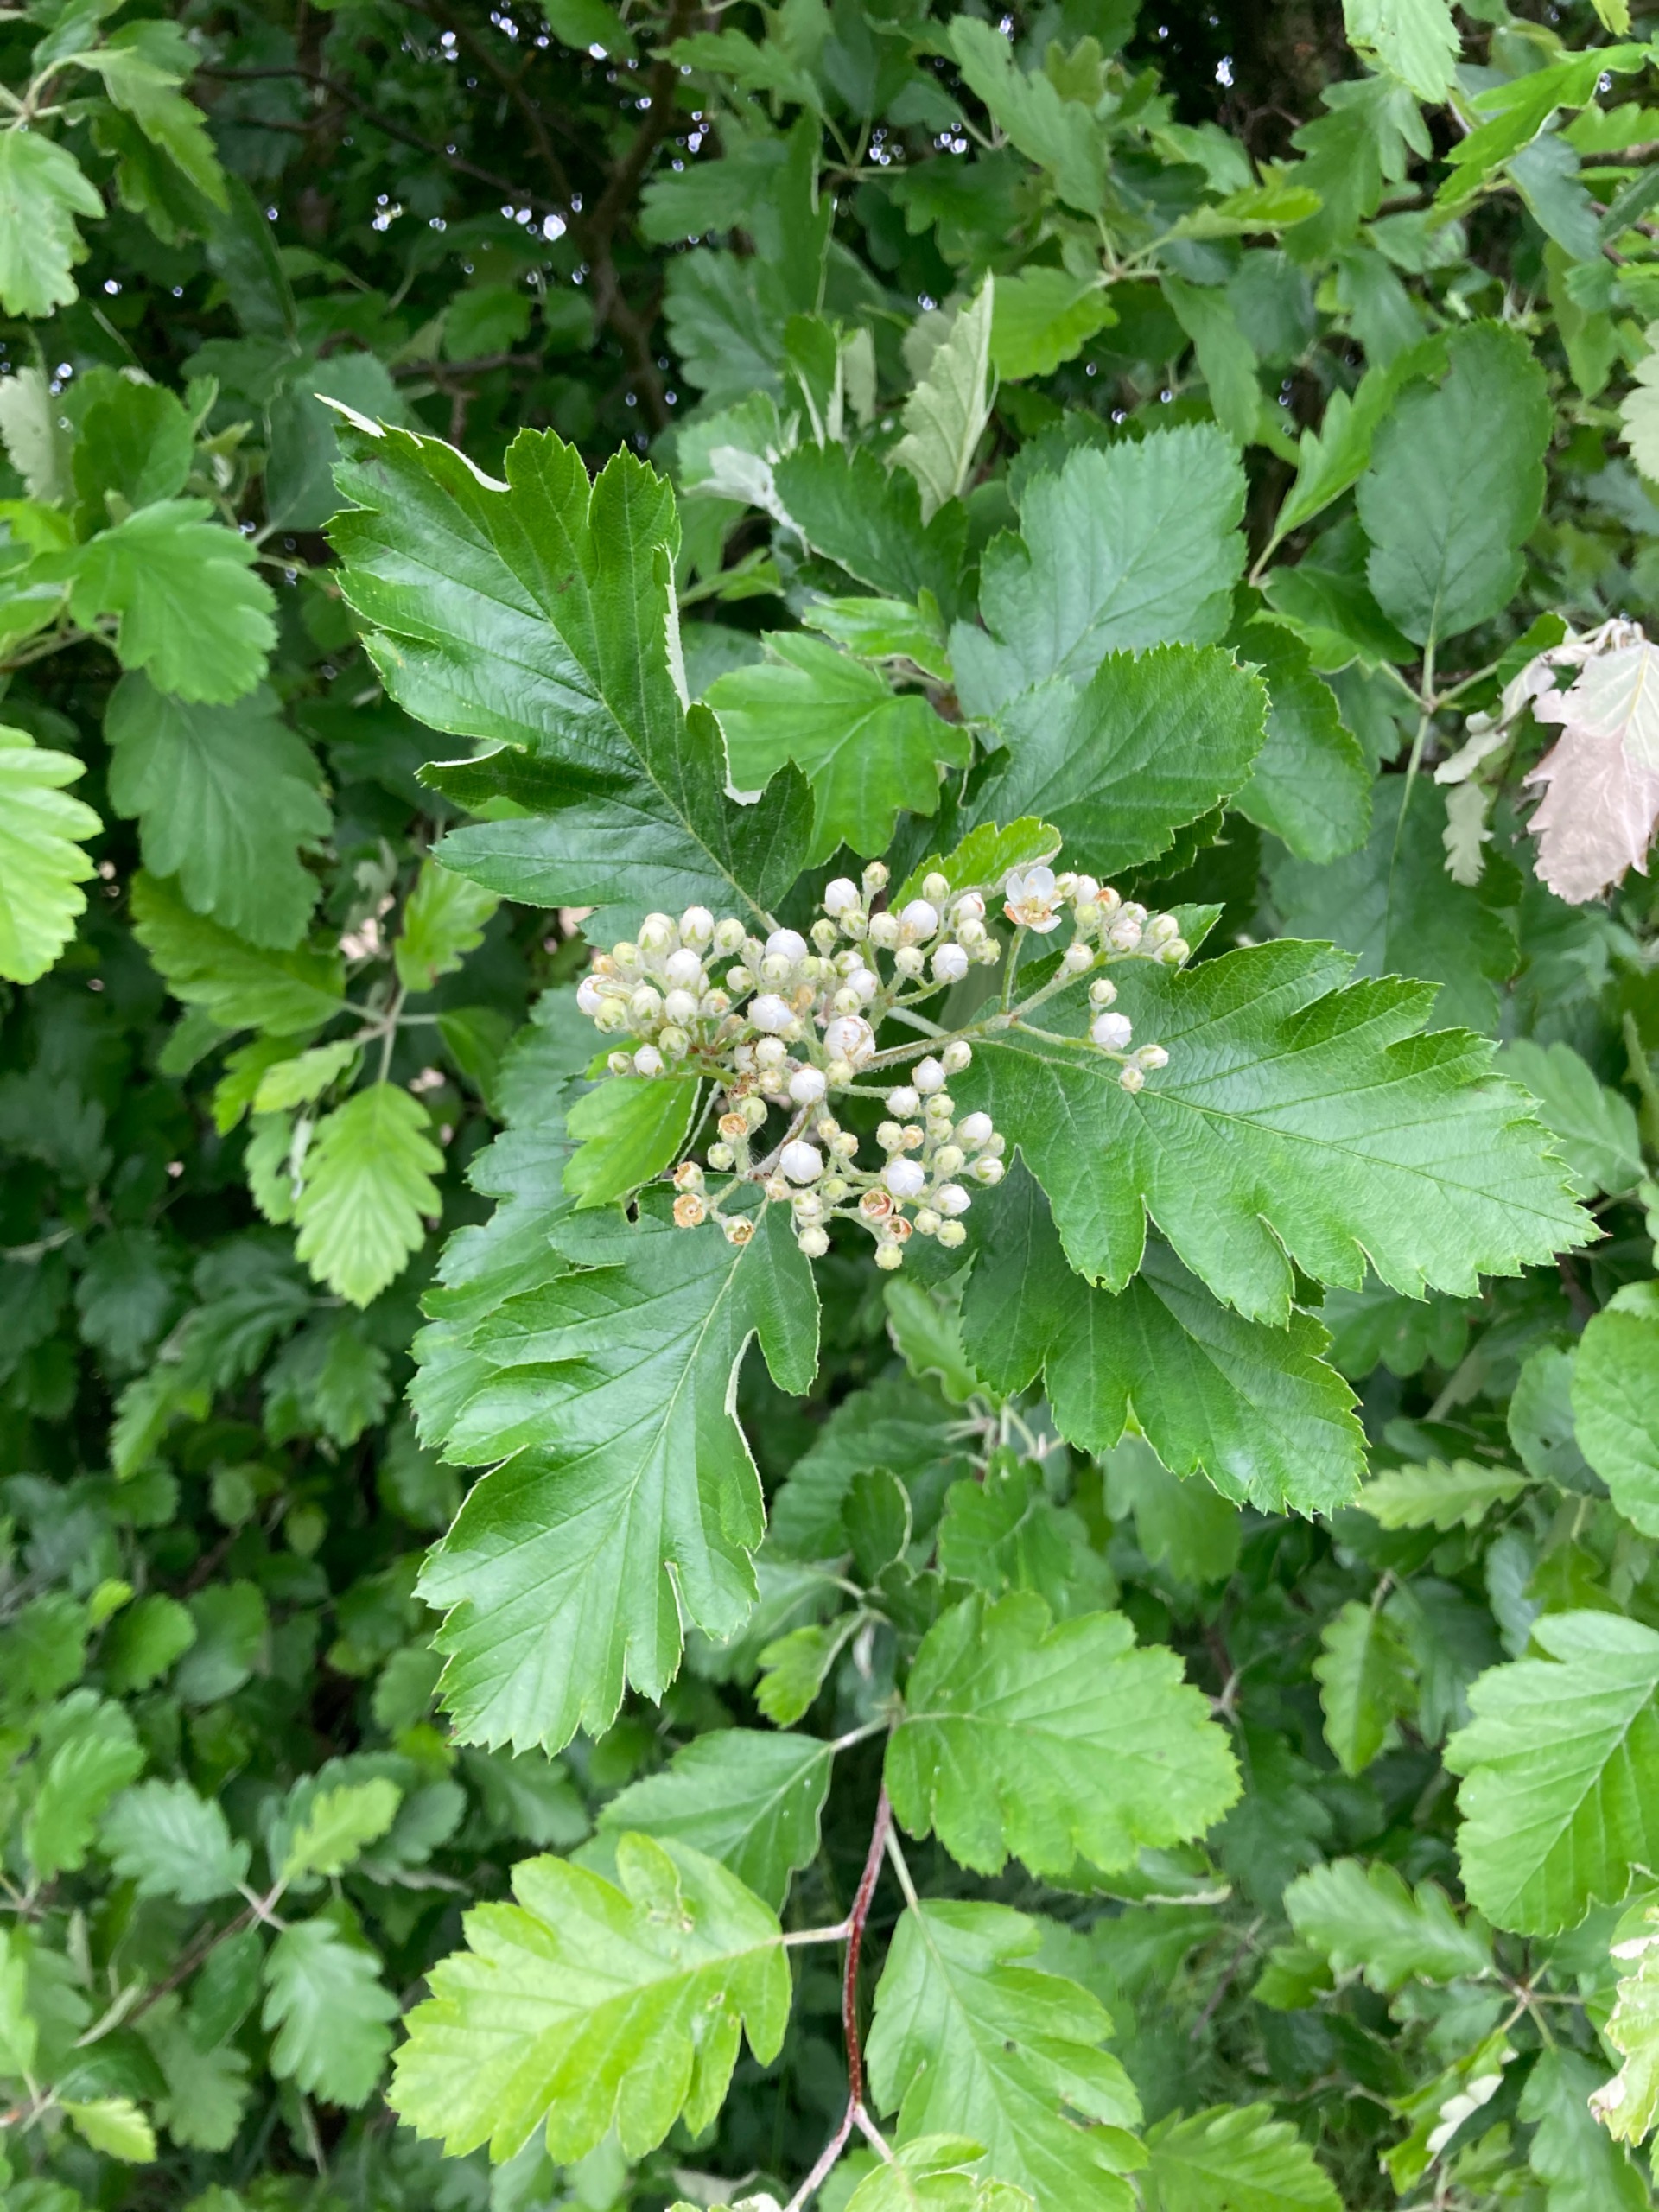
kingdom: Plantae
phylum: Tracheophyta
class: Magnoliopsida
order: Rosales
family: Rosaceae
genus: Scandosorbus
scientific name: Scandosorbus intermedia
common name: Selje-røn
